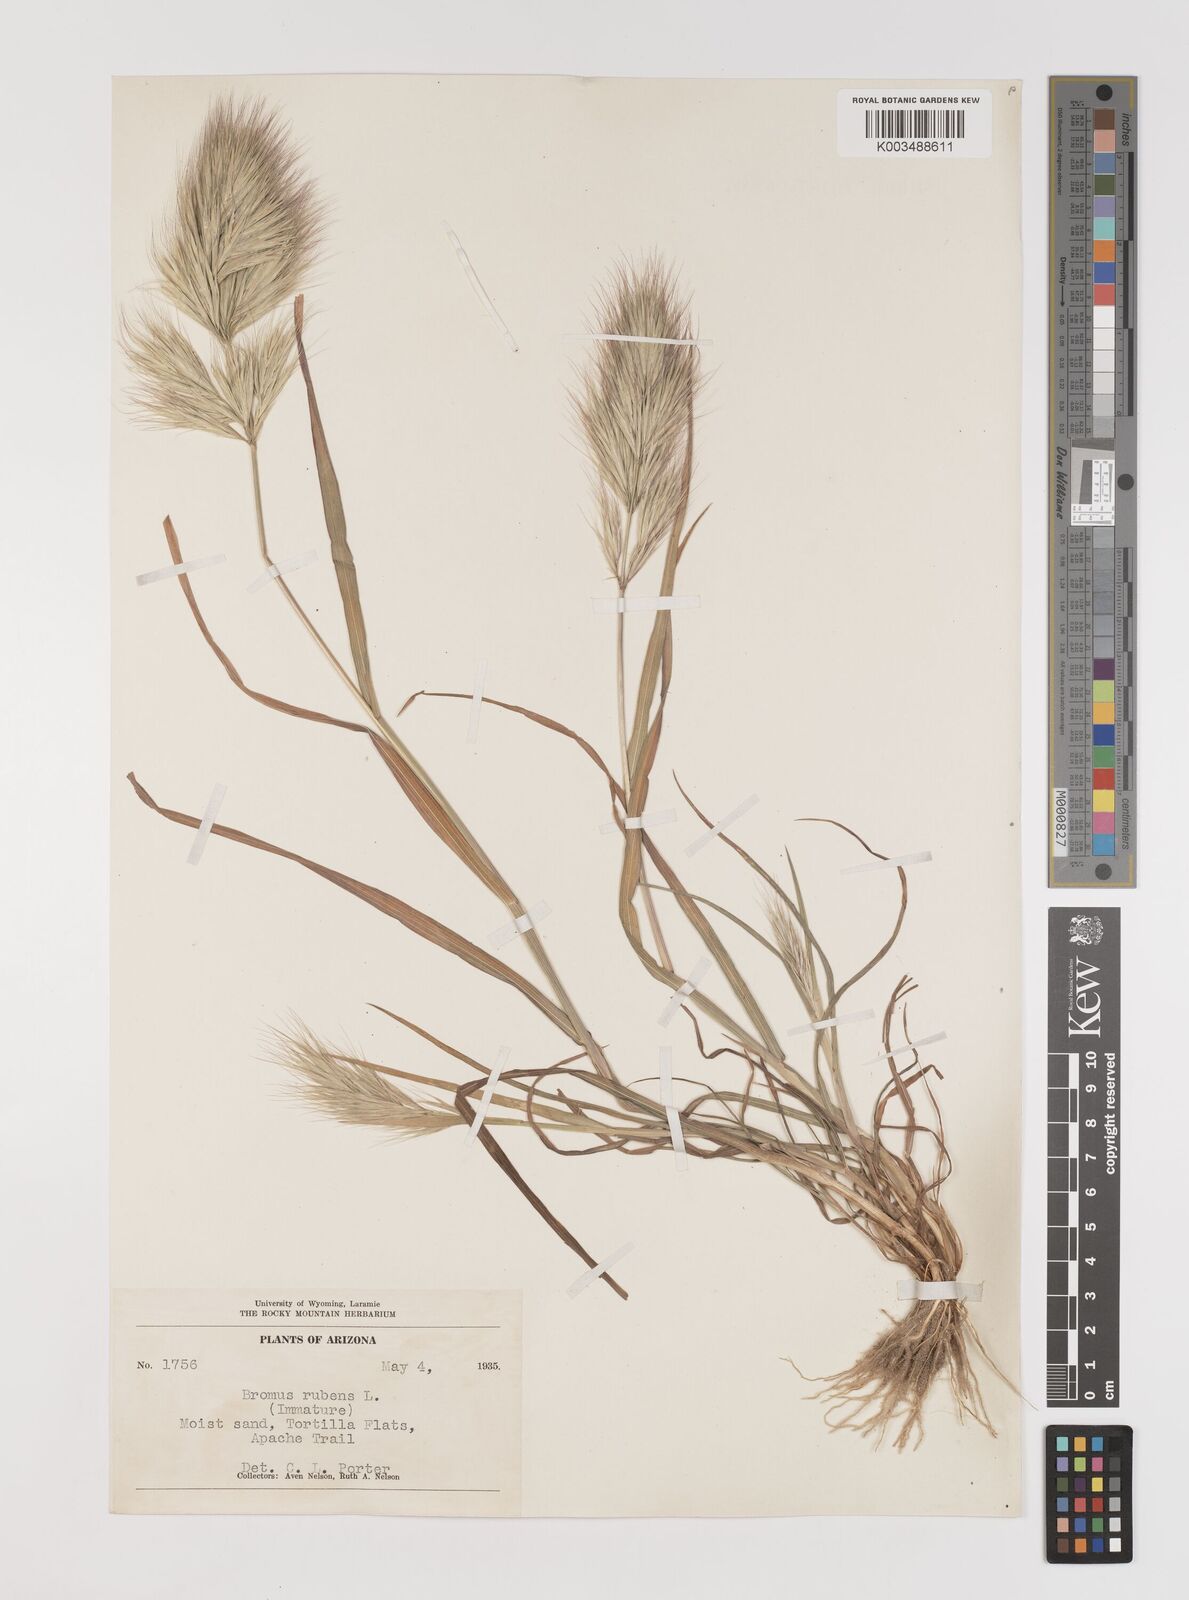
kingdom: Plantae
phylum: Tracheophyta
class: Liliopsida
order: Poales
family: Poaceae
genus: Bromus
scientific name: Bromus rubens
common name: Red brome
